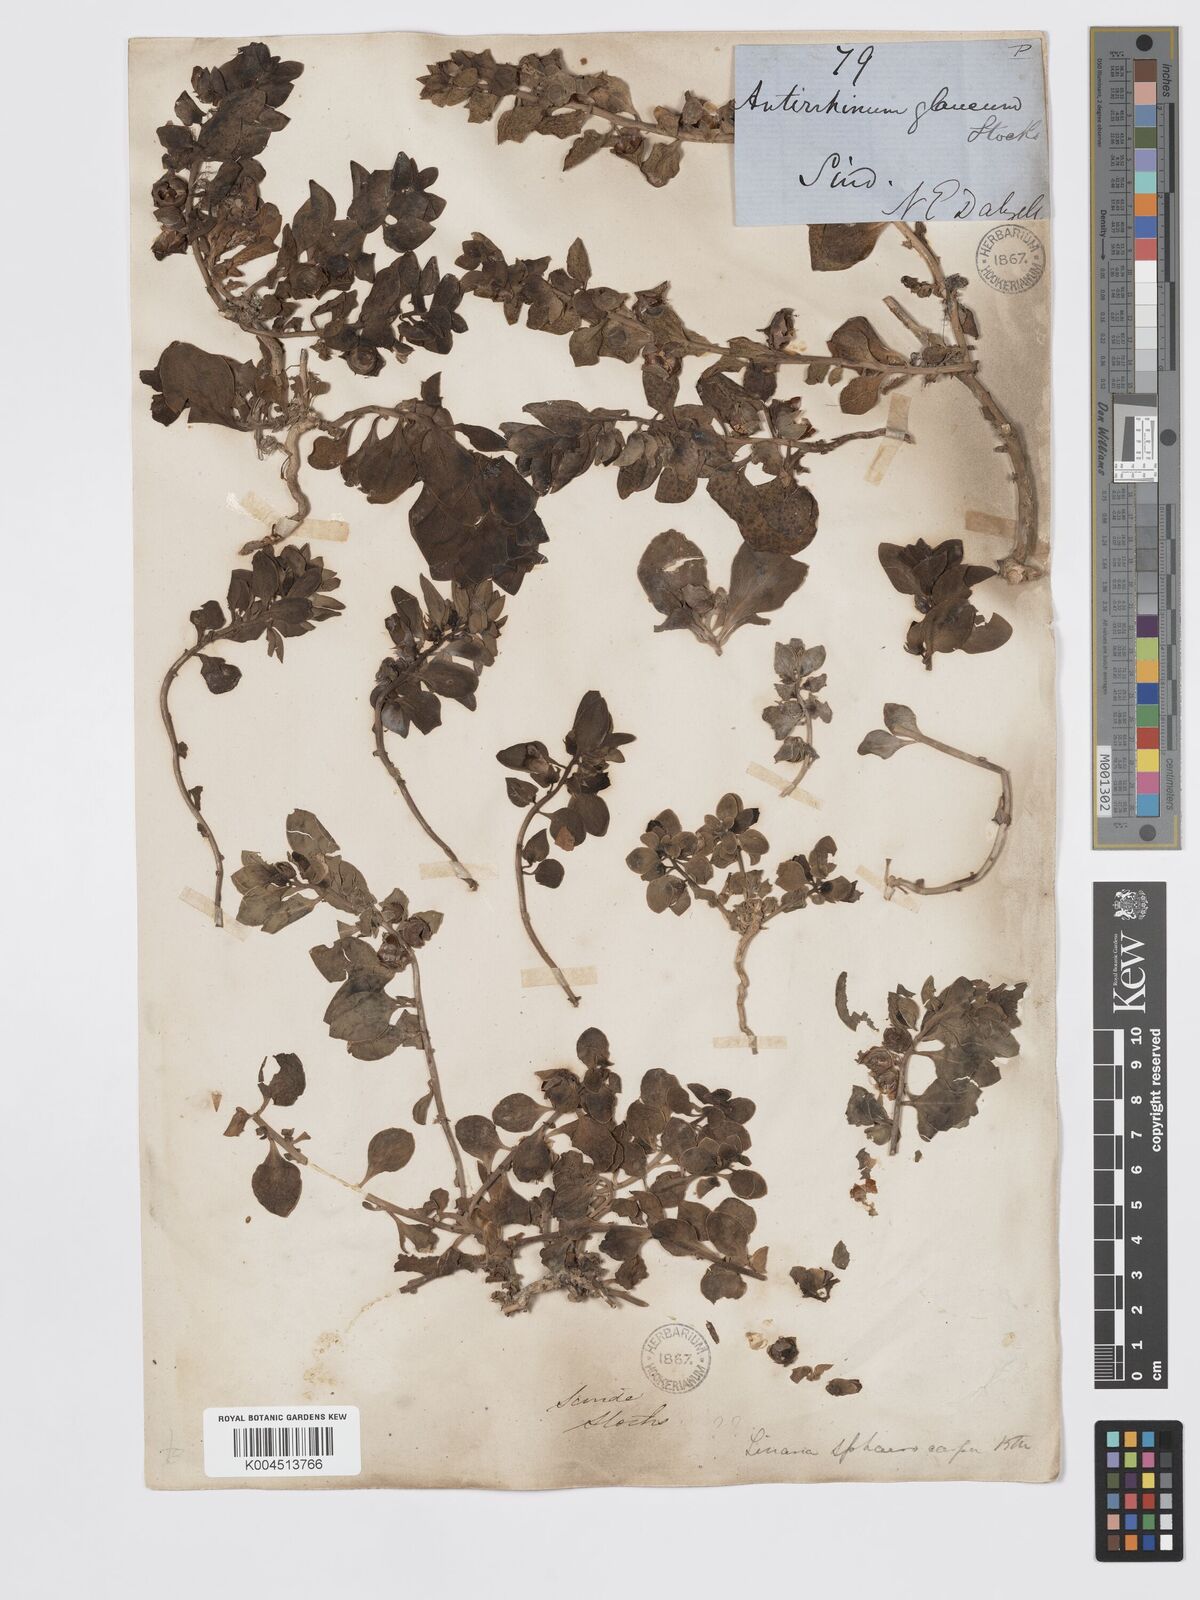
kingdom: Plantae
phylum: Tracheophyta
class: Magnoliopsida
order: Lamiales
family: Plantaginaceae
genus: Schweinfurthia
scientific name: Schweinfurthia papilionacea
